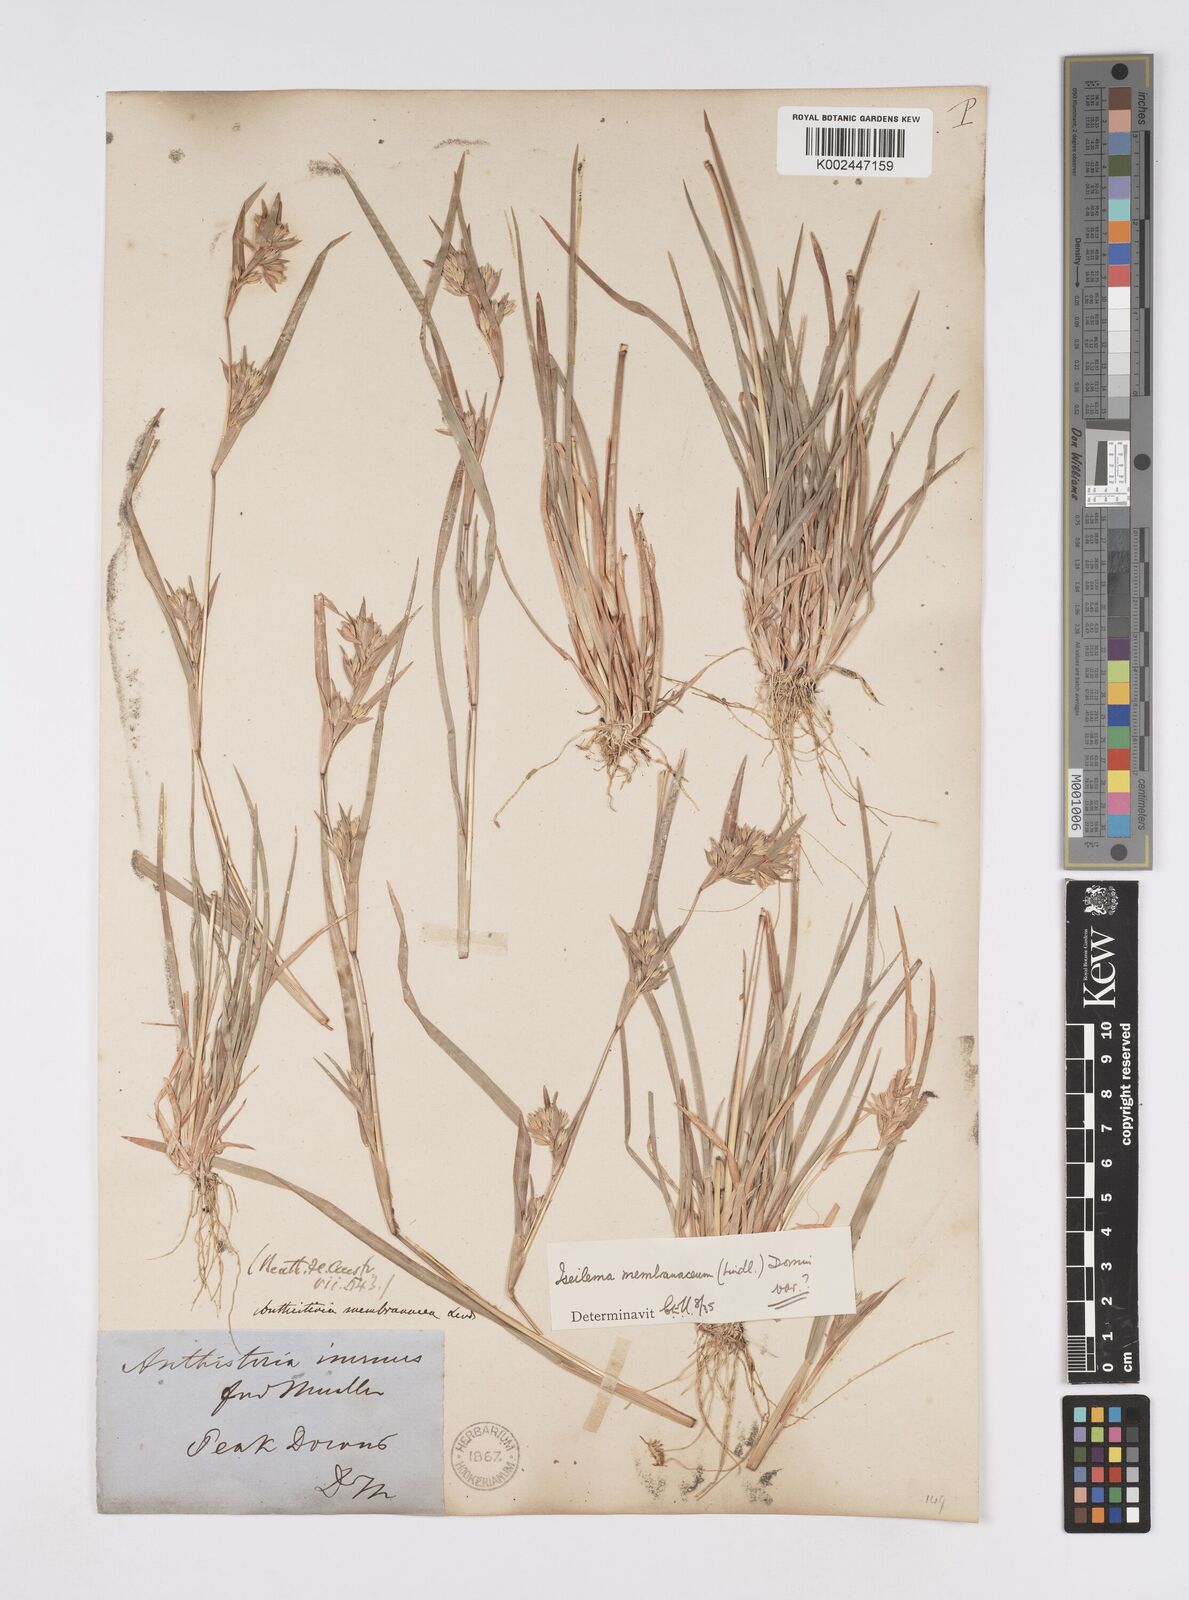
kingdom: Plantae
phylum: Tracheophyta
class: Liliopsida
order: Poales
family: Poaceae
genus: Iseilema
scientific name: Iseilema membranaceum
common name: Small flinders grass
